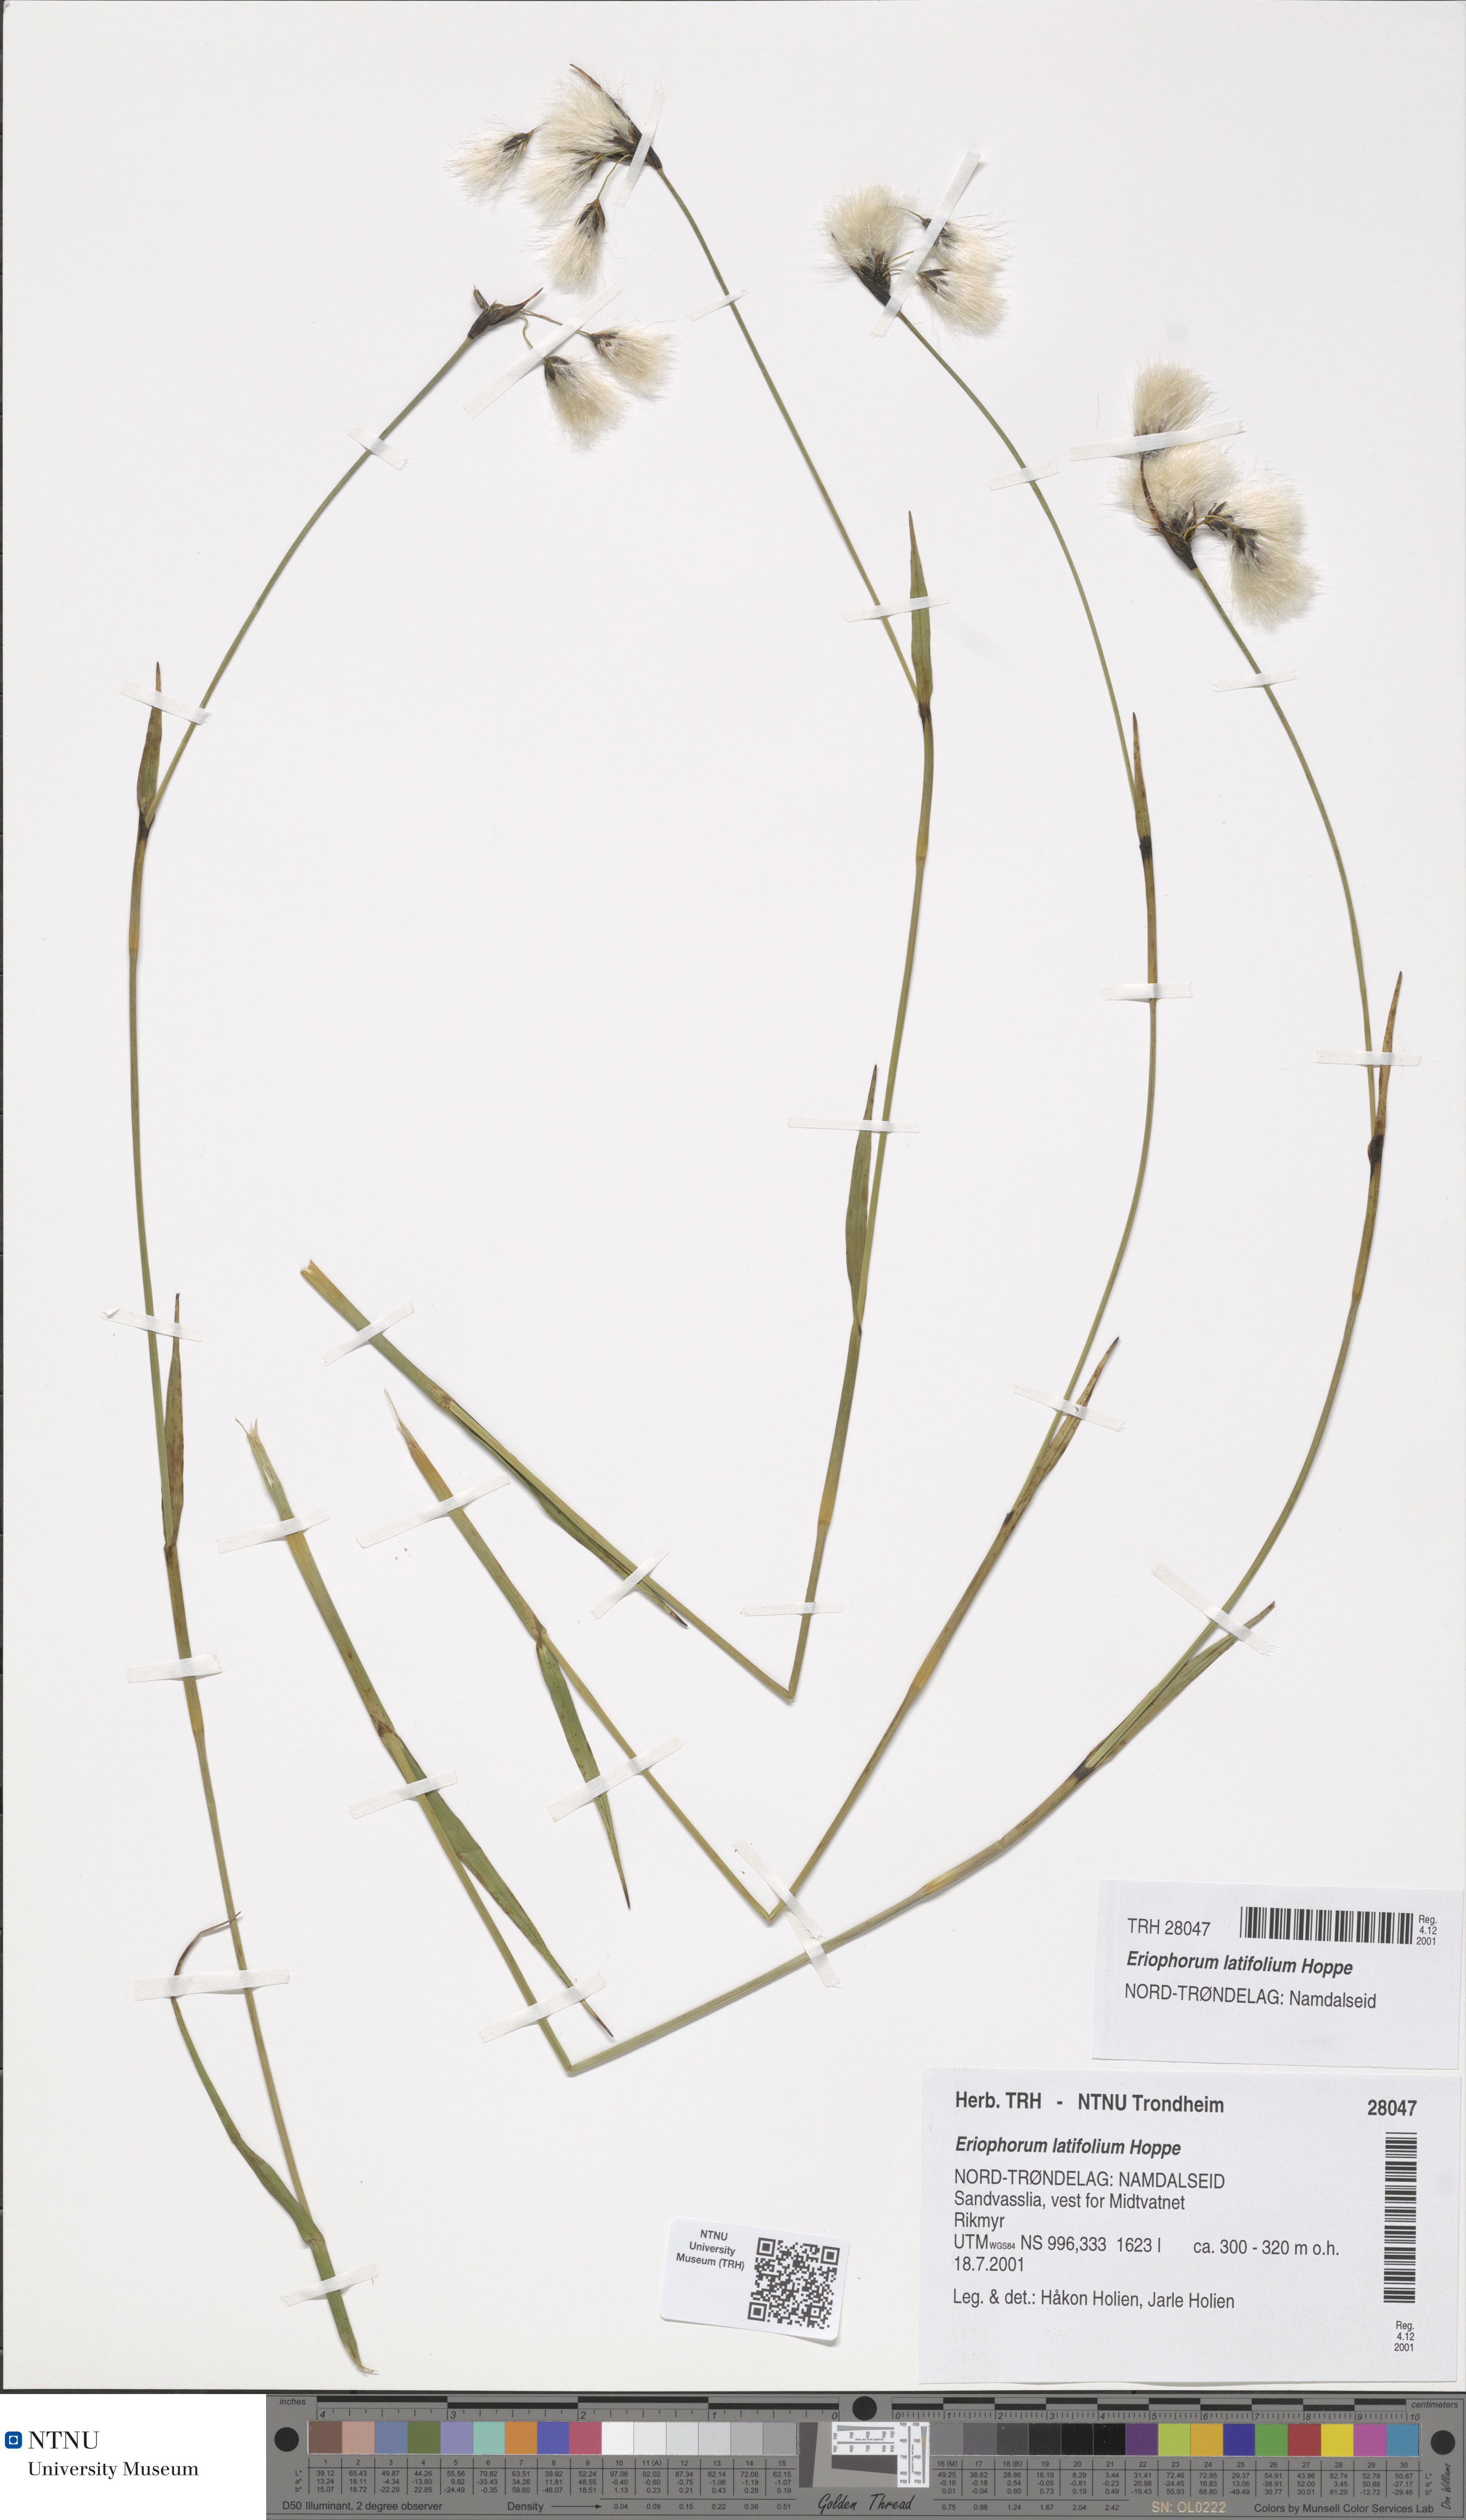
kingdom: Plantae
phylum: Tracheophyta
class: Liliopsida
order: Poales
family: Cyperaceae
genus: Eriophorum
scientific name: Eriophorum latifolium
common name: Broad-leaved cottongrass
